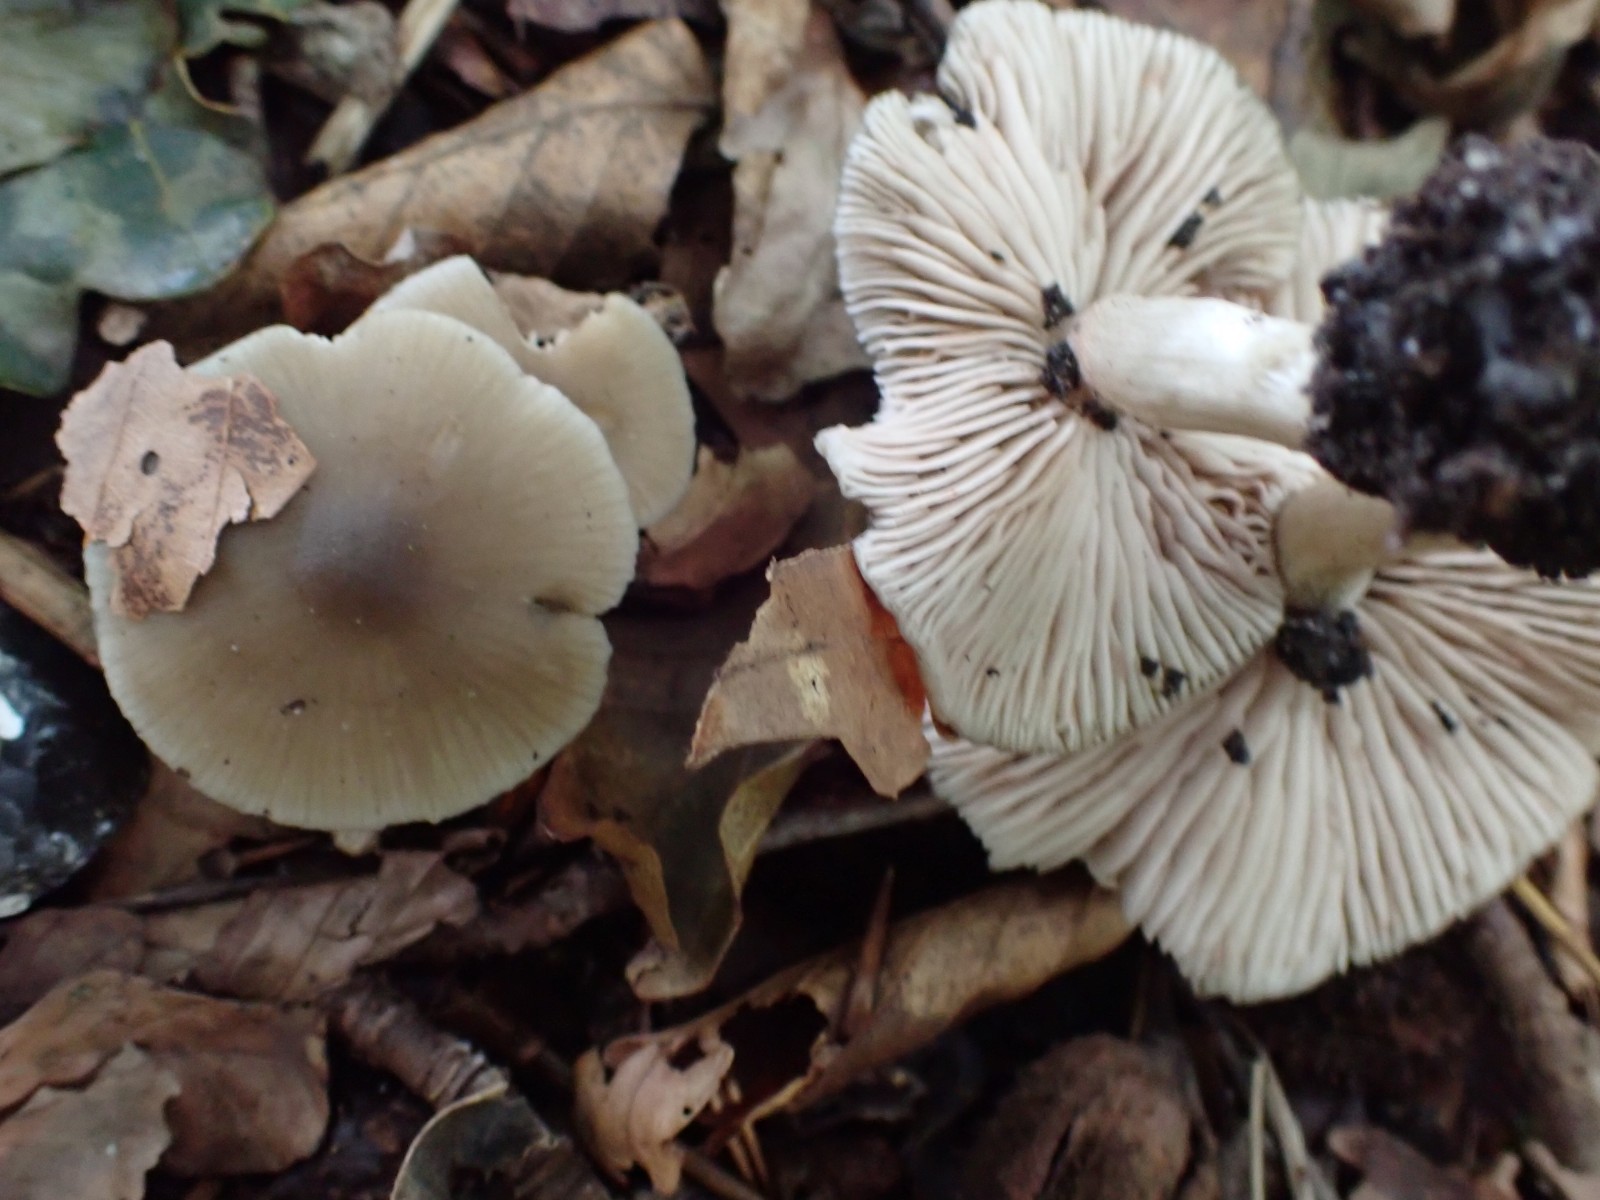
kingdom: Fungi
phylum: Basidiomycota
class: Agaricomycetes
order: Agaricales
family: Entolomataceae
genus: Entoloma
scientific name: Entoloma
